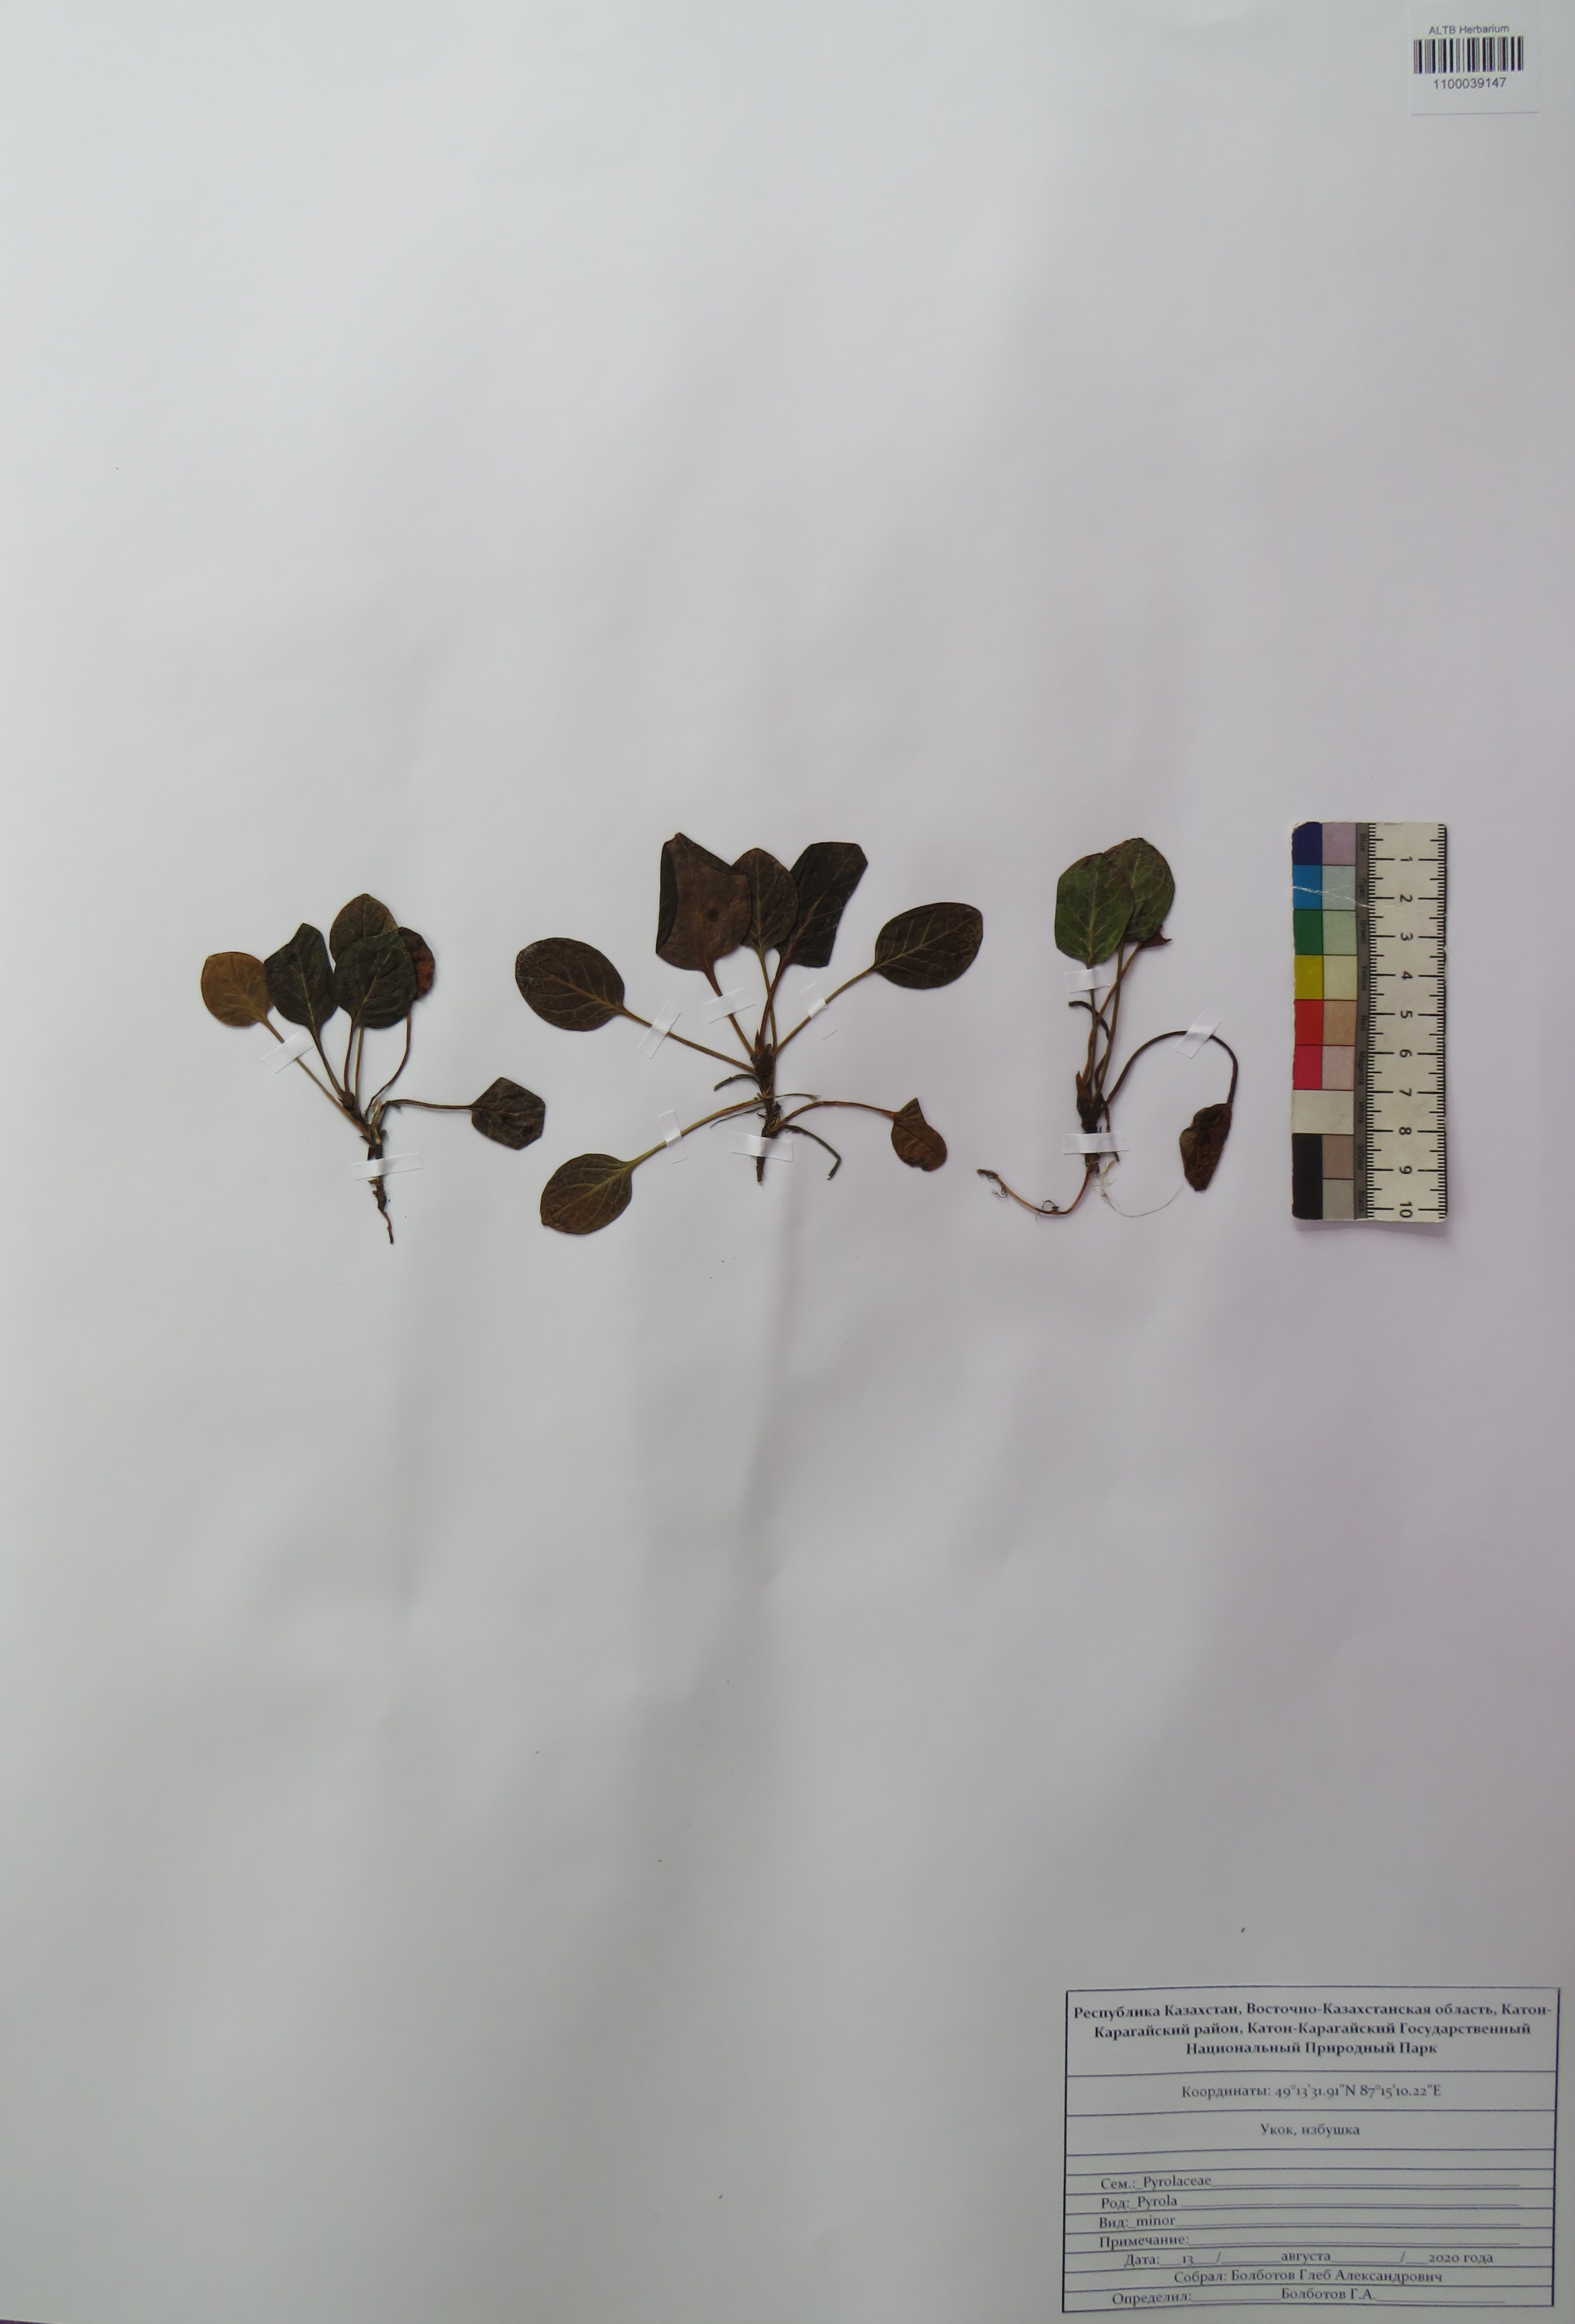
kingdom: Plantae
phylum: Tracheophyta
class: Magnoliopsida
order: Ericales
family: Ericaceae
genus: Pyrola
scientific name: Pyrola minor
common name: Common wintergreen
